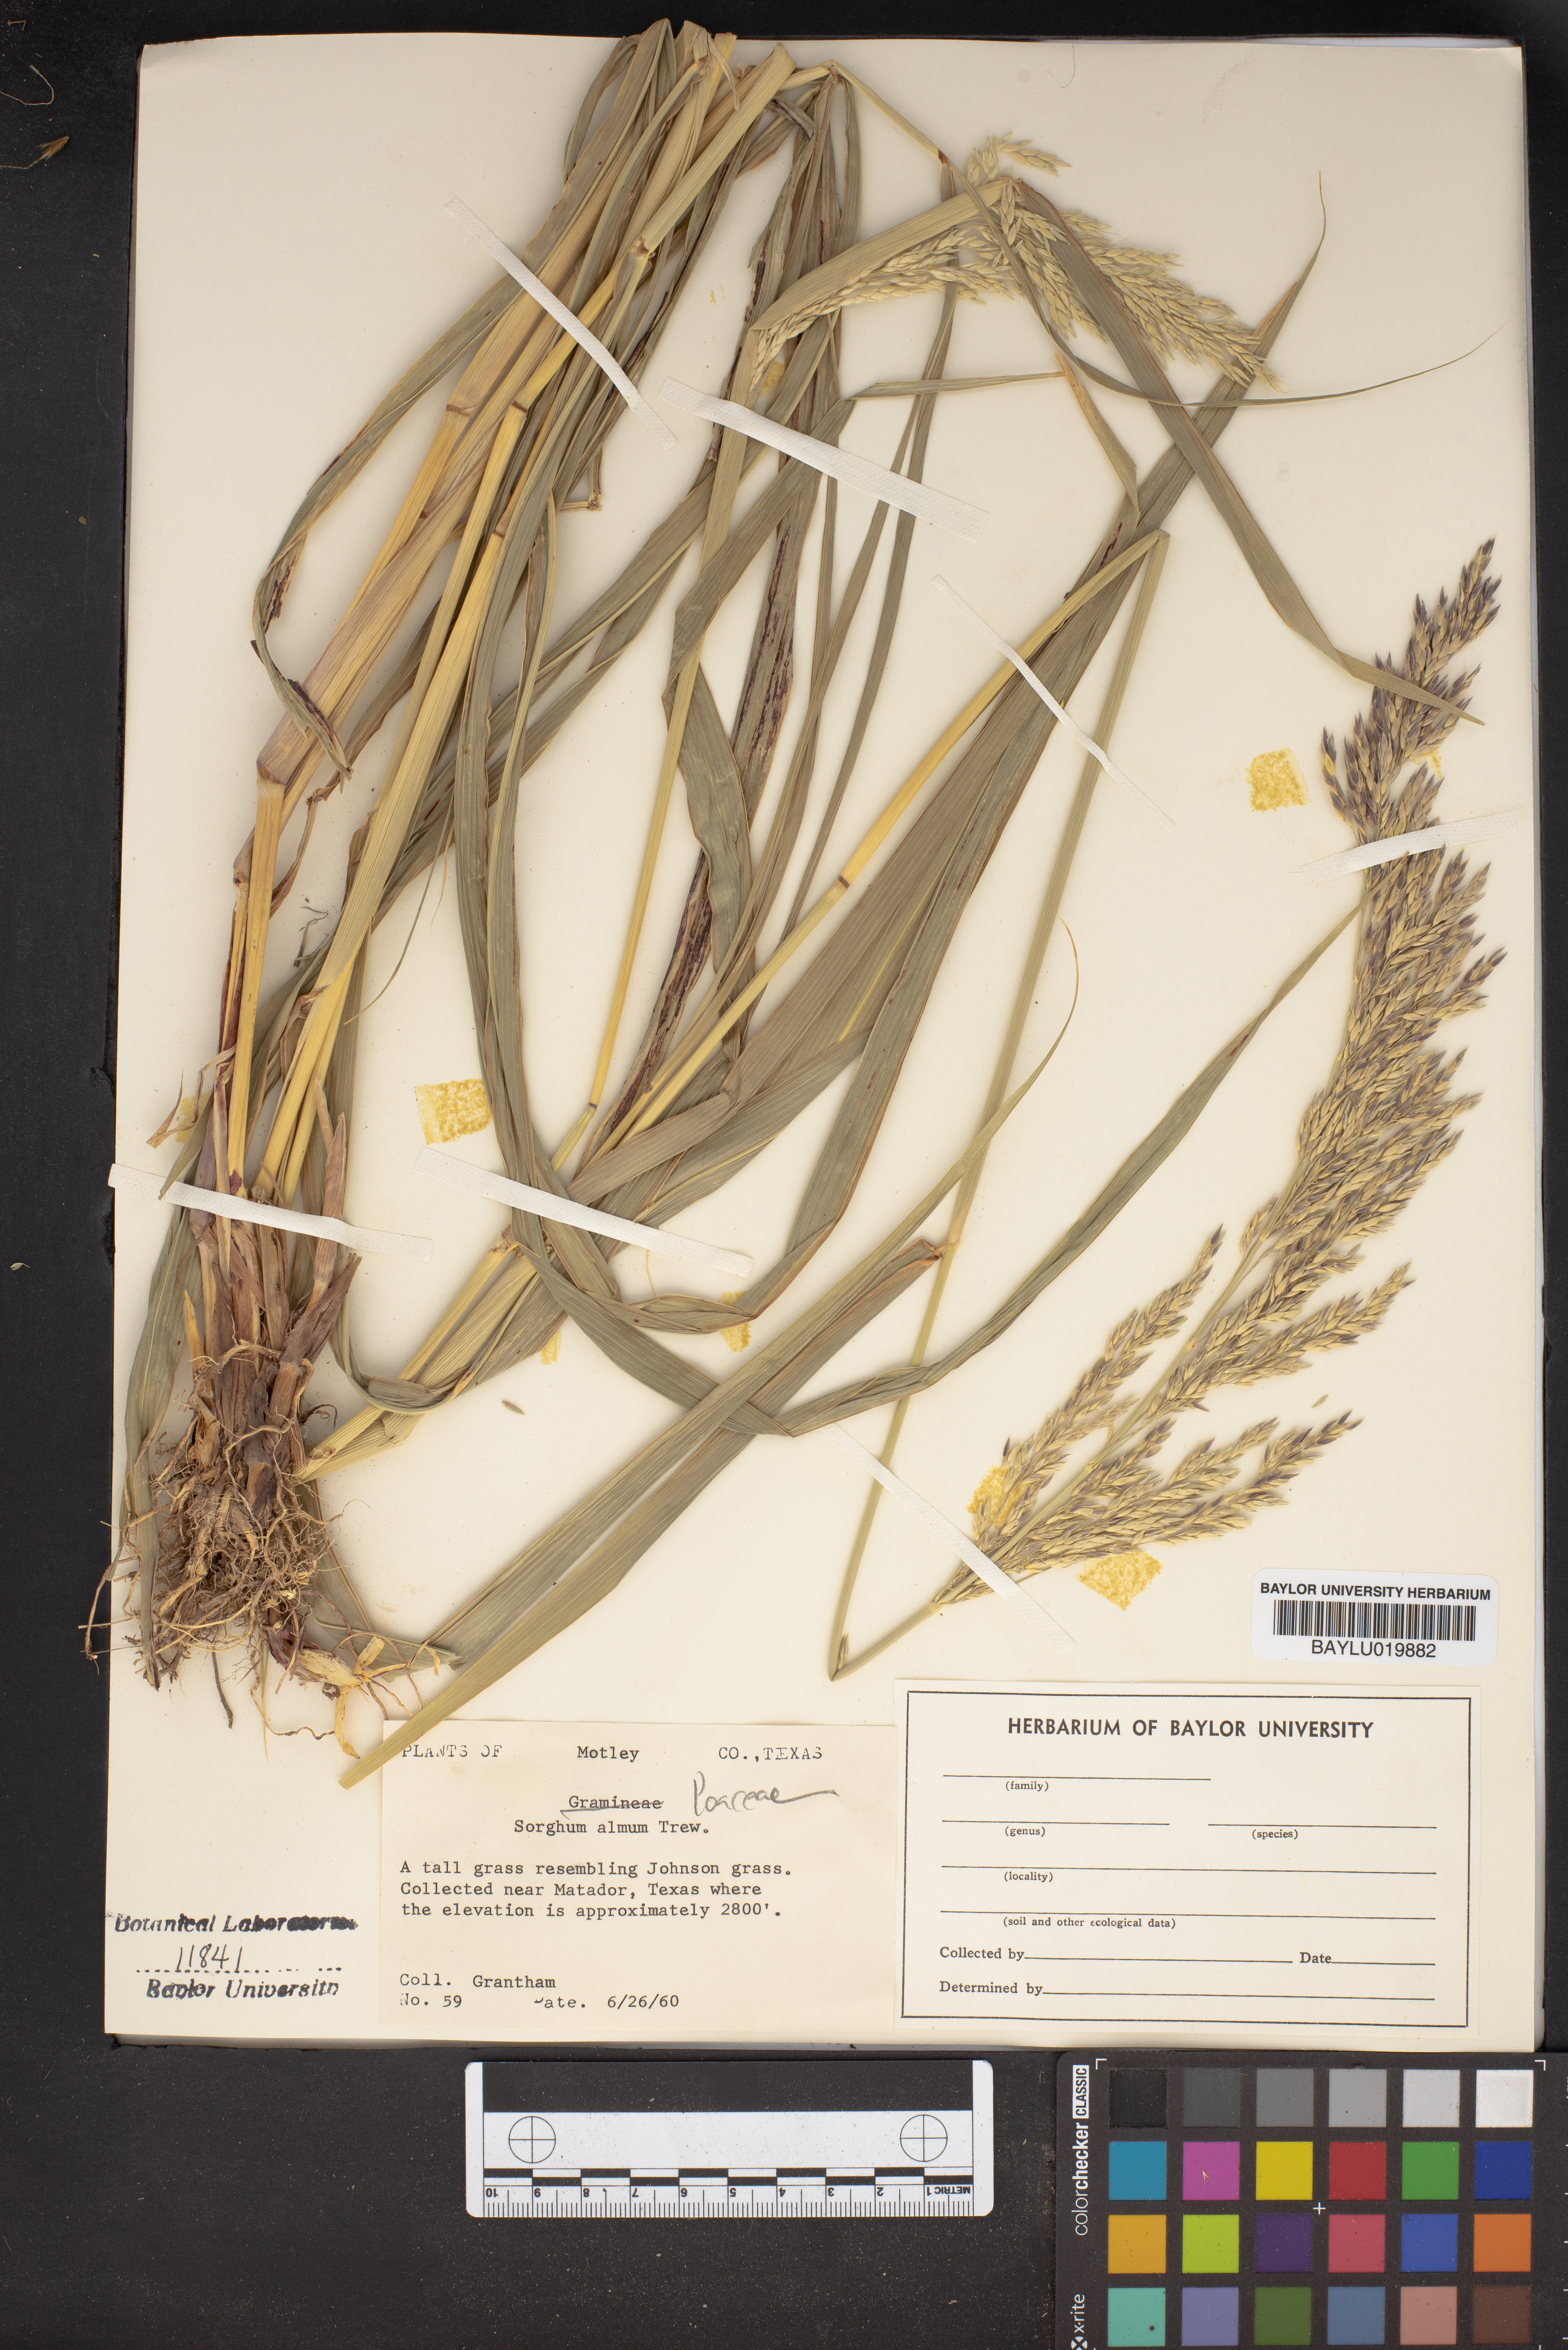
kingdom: Plantae
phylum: Tracheophyta
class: Liliopsida
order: Poales
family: Poaceae
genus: Sorghum
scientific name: Sorghum almum
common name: Columbus grass
